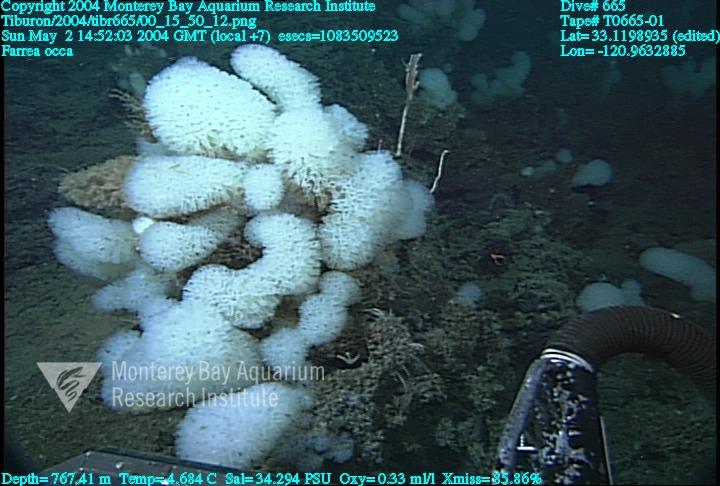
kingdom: Animalia
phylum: Porifera
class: Hexactinellida
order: Sceptrulophora
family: Farreidae
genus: Farrea
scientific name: Farrea occa
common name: Reversed glass sponge
